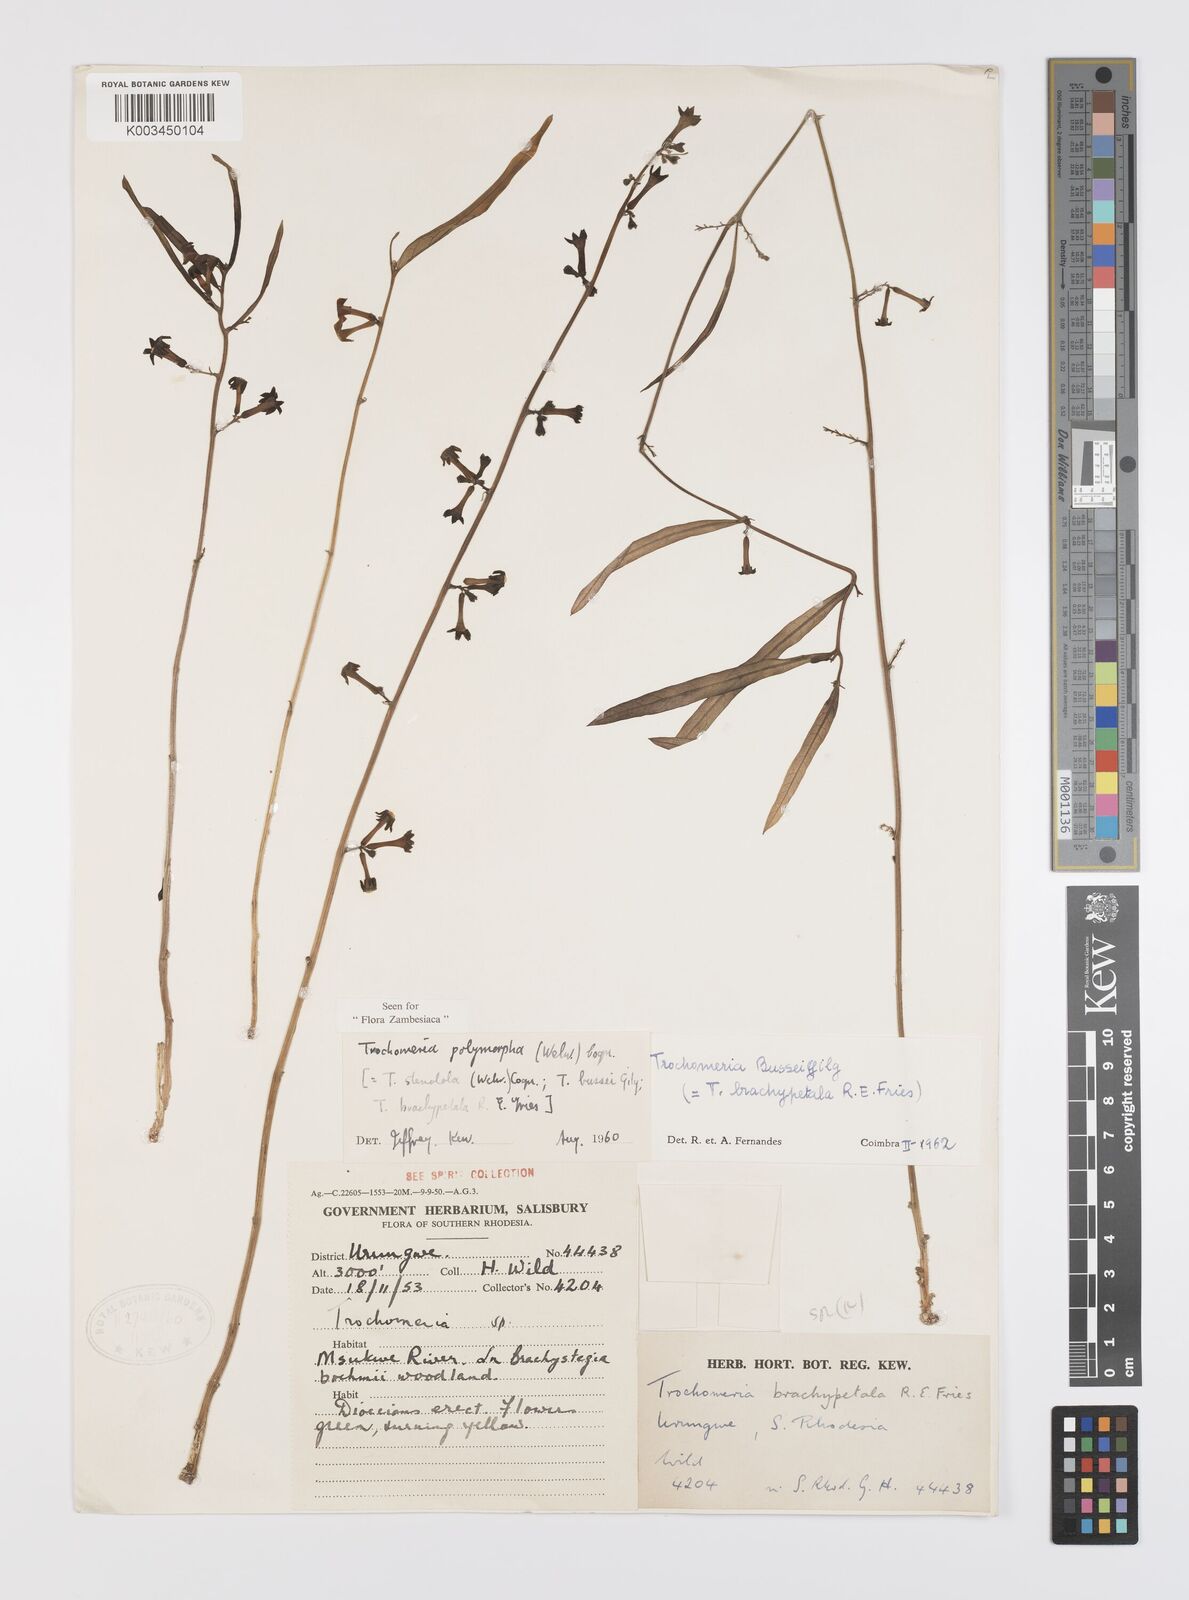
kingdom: Plantae
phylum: Tracheophyta
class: Magnoliopsida
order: Cucurbitales
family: Cucurbitaceae
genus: Trochomeria
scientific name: Trochomeria polymorpha
